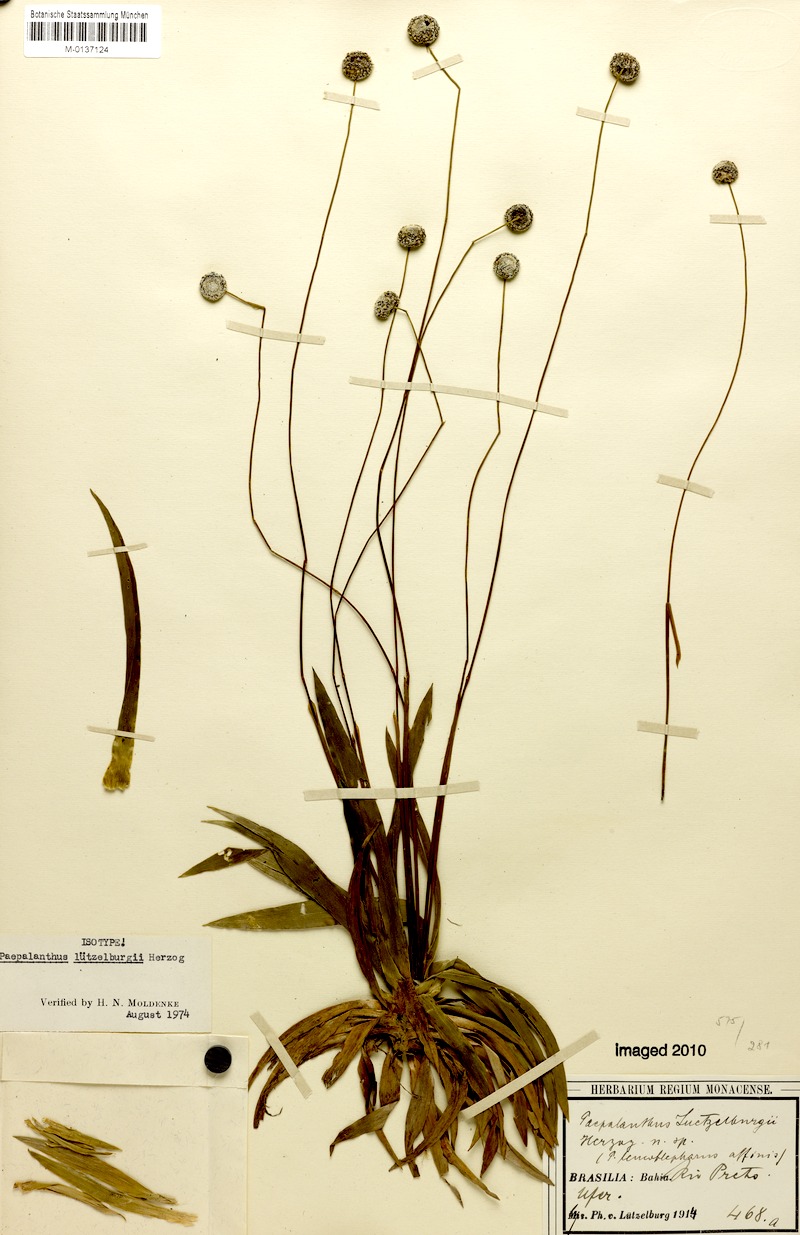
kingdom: Plantae
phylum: Tracheophyta
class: Liliopsida
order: Poales
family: Eriocaulaceae
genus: Paepalanthus
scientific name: Paepalanthus luetzelburgii
